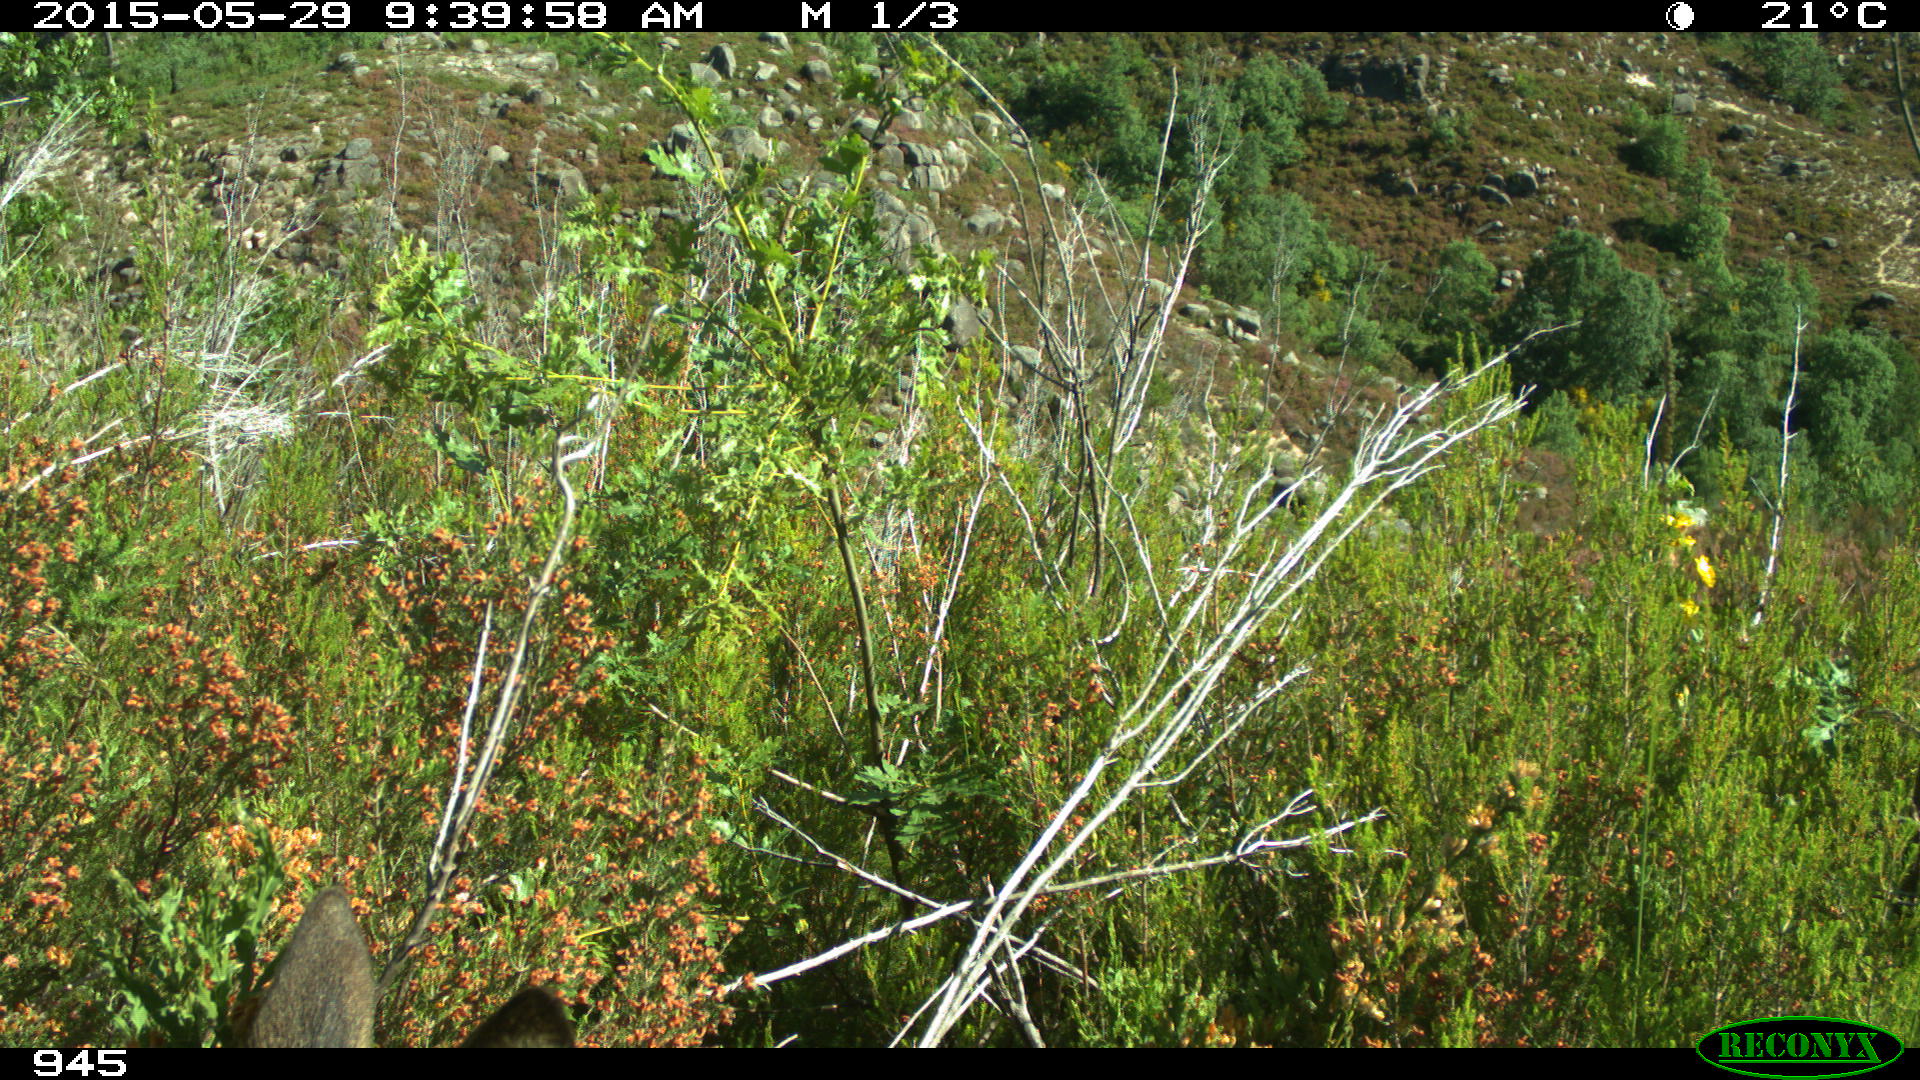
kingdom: Animalia
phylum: Chordata
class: Mammalia
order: Artiodactyla
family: Cervidae
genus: Capreolus
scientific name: Capreolus capreolus
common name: Western roe deer
